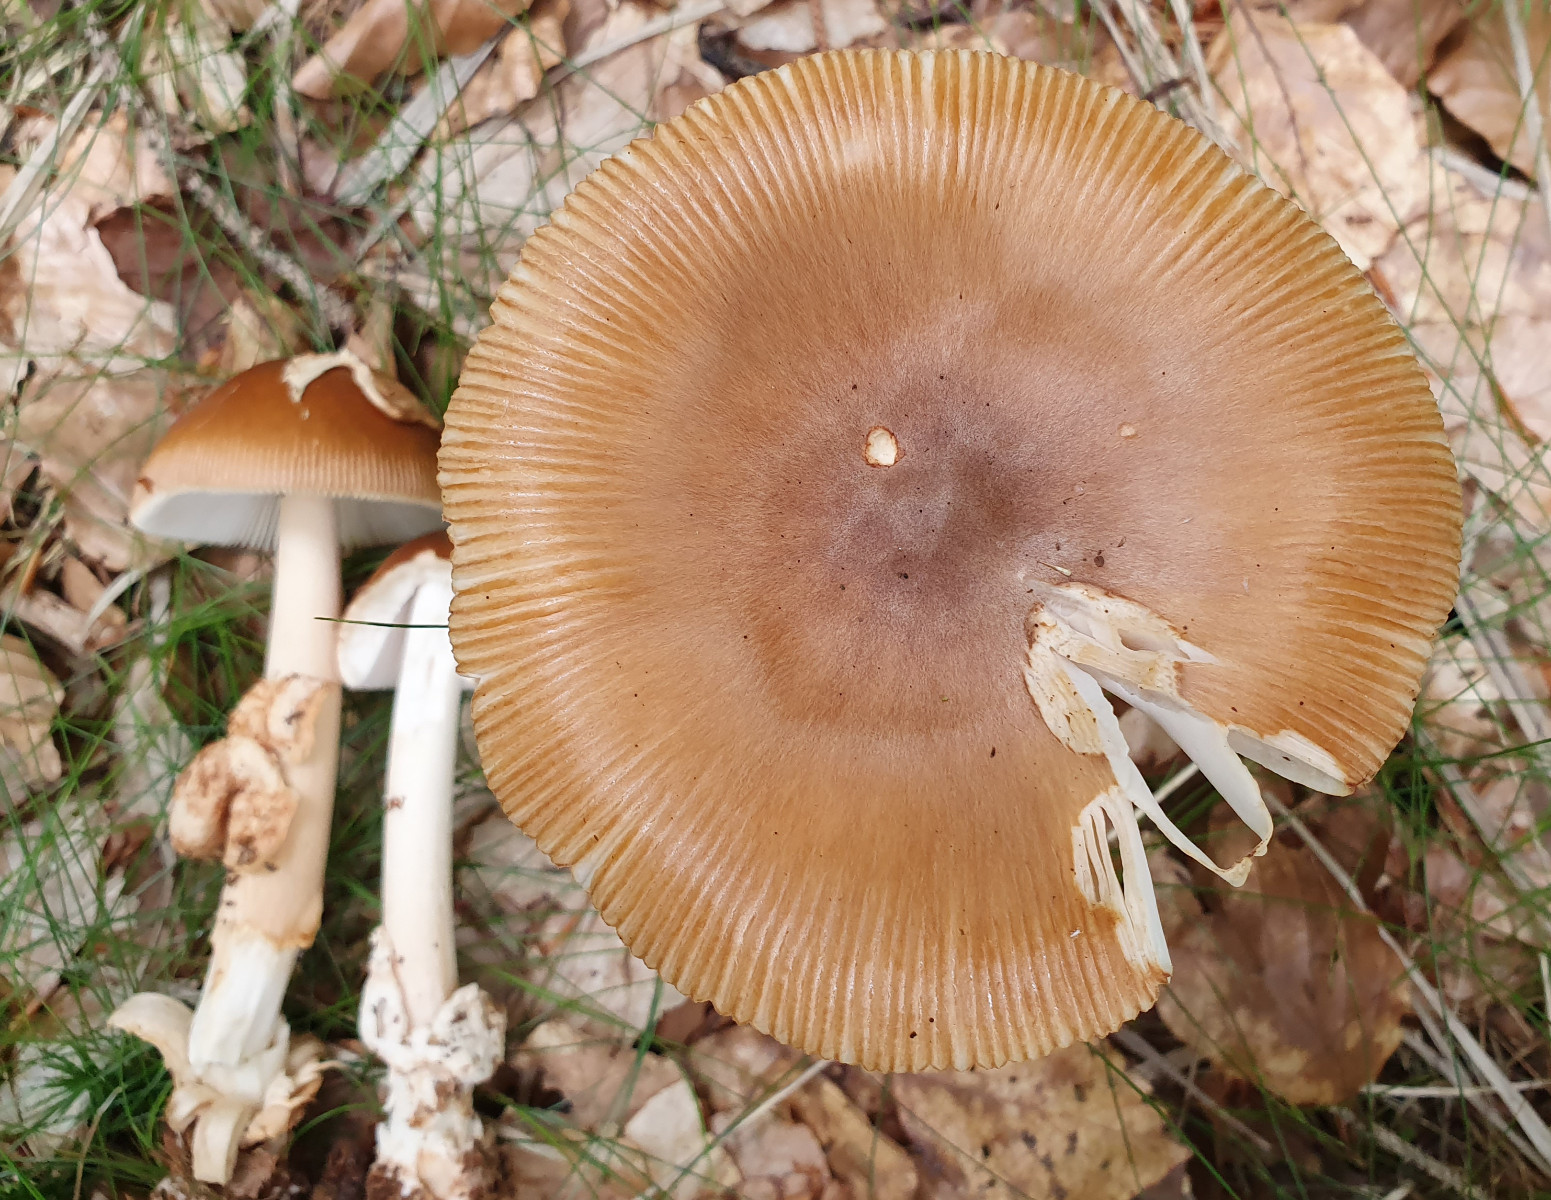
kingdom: Fungi
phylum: Basidiomycota
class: Agaricomycetes
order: Agaricales
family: Amanitaceae
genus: Amanita
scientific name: Amanita fulva
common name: brun kam-fluesvamp
